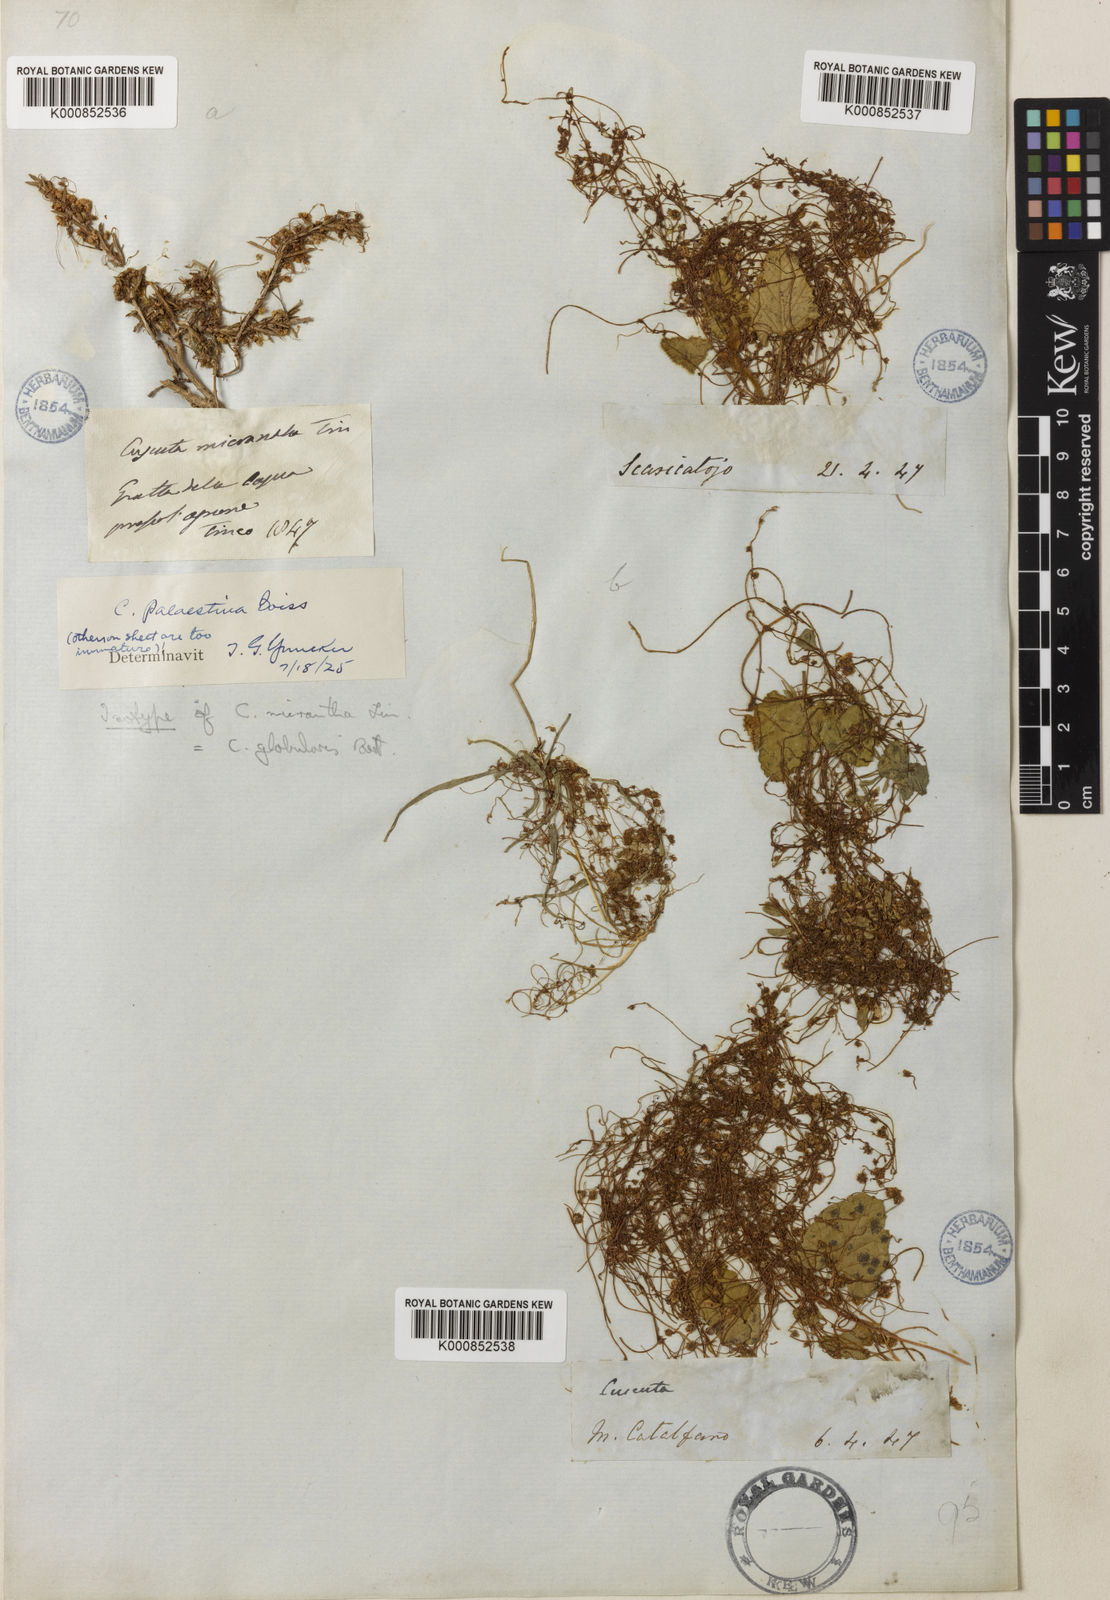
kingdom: Plantae
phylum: Tracheophyta
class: Magnoliopsida
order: Solanales
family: Convolvulaceae
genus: Cuscuta
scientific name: Cuscuta palaestina
